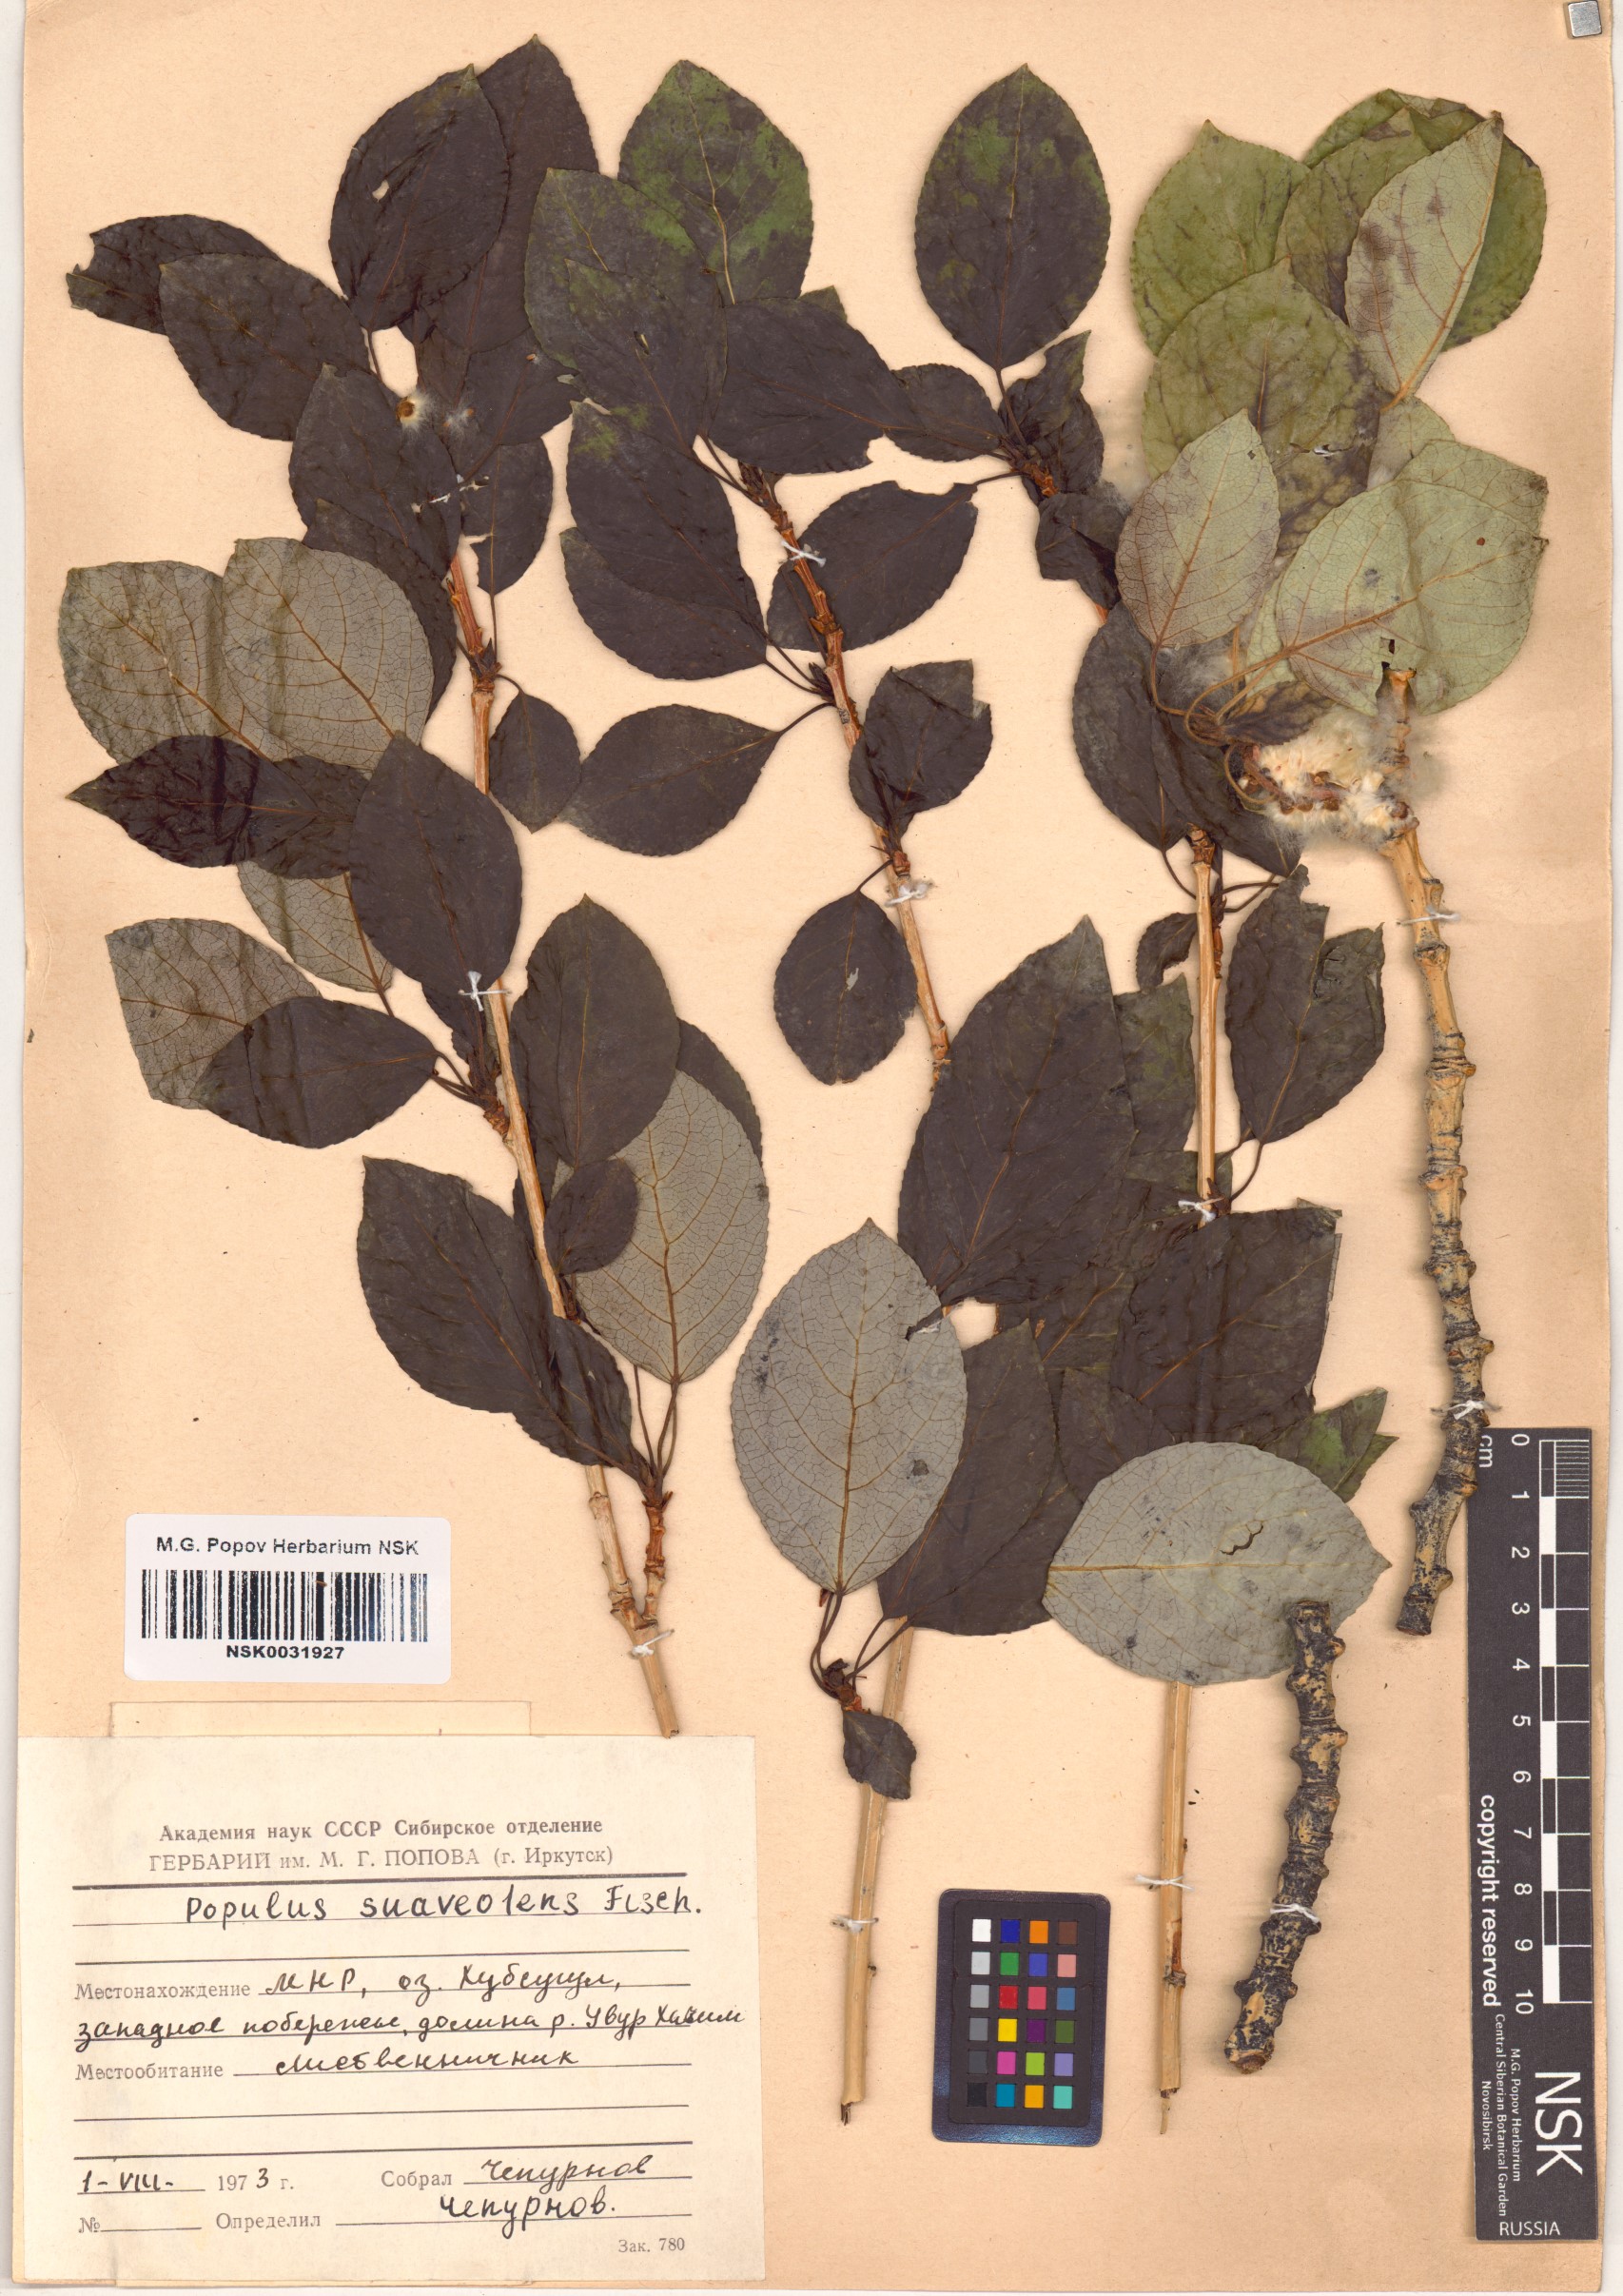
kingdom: Plantae
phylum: Tracheophyta
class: Magnoliopsida
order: Malpighiales
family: Salicaceae
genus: Populus
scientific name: Populus suaveolens
